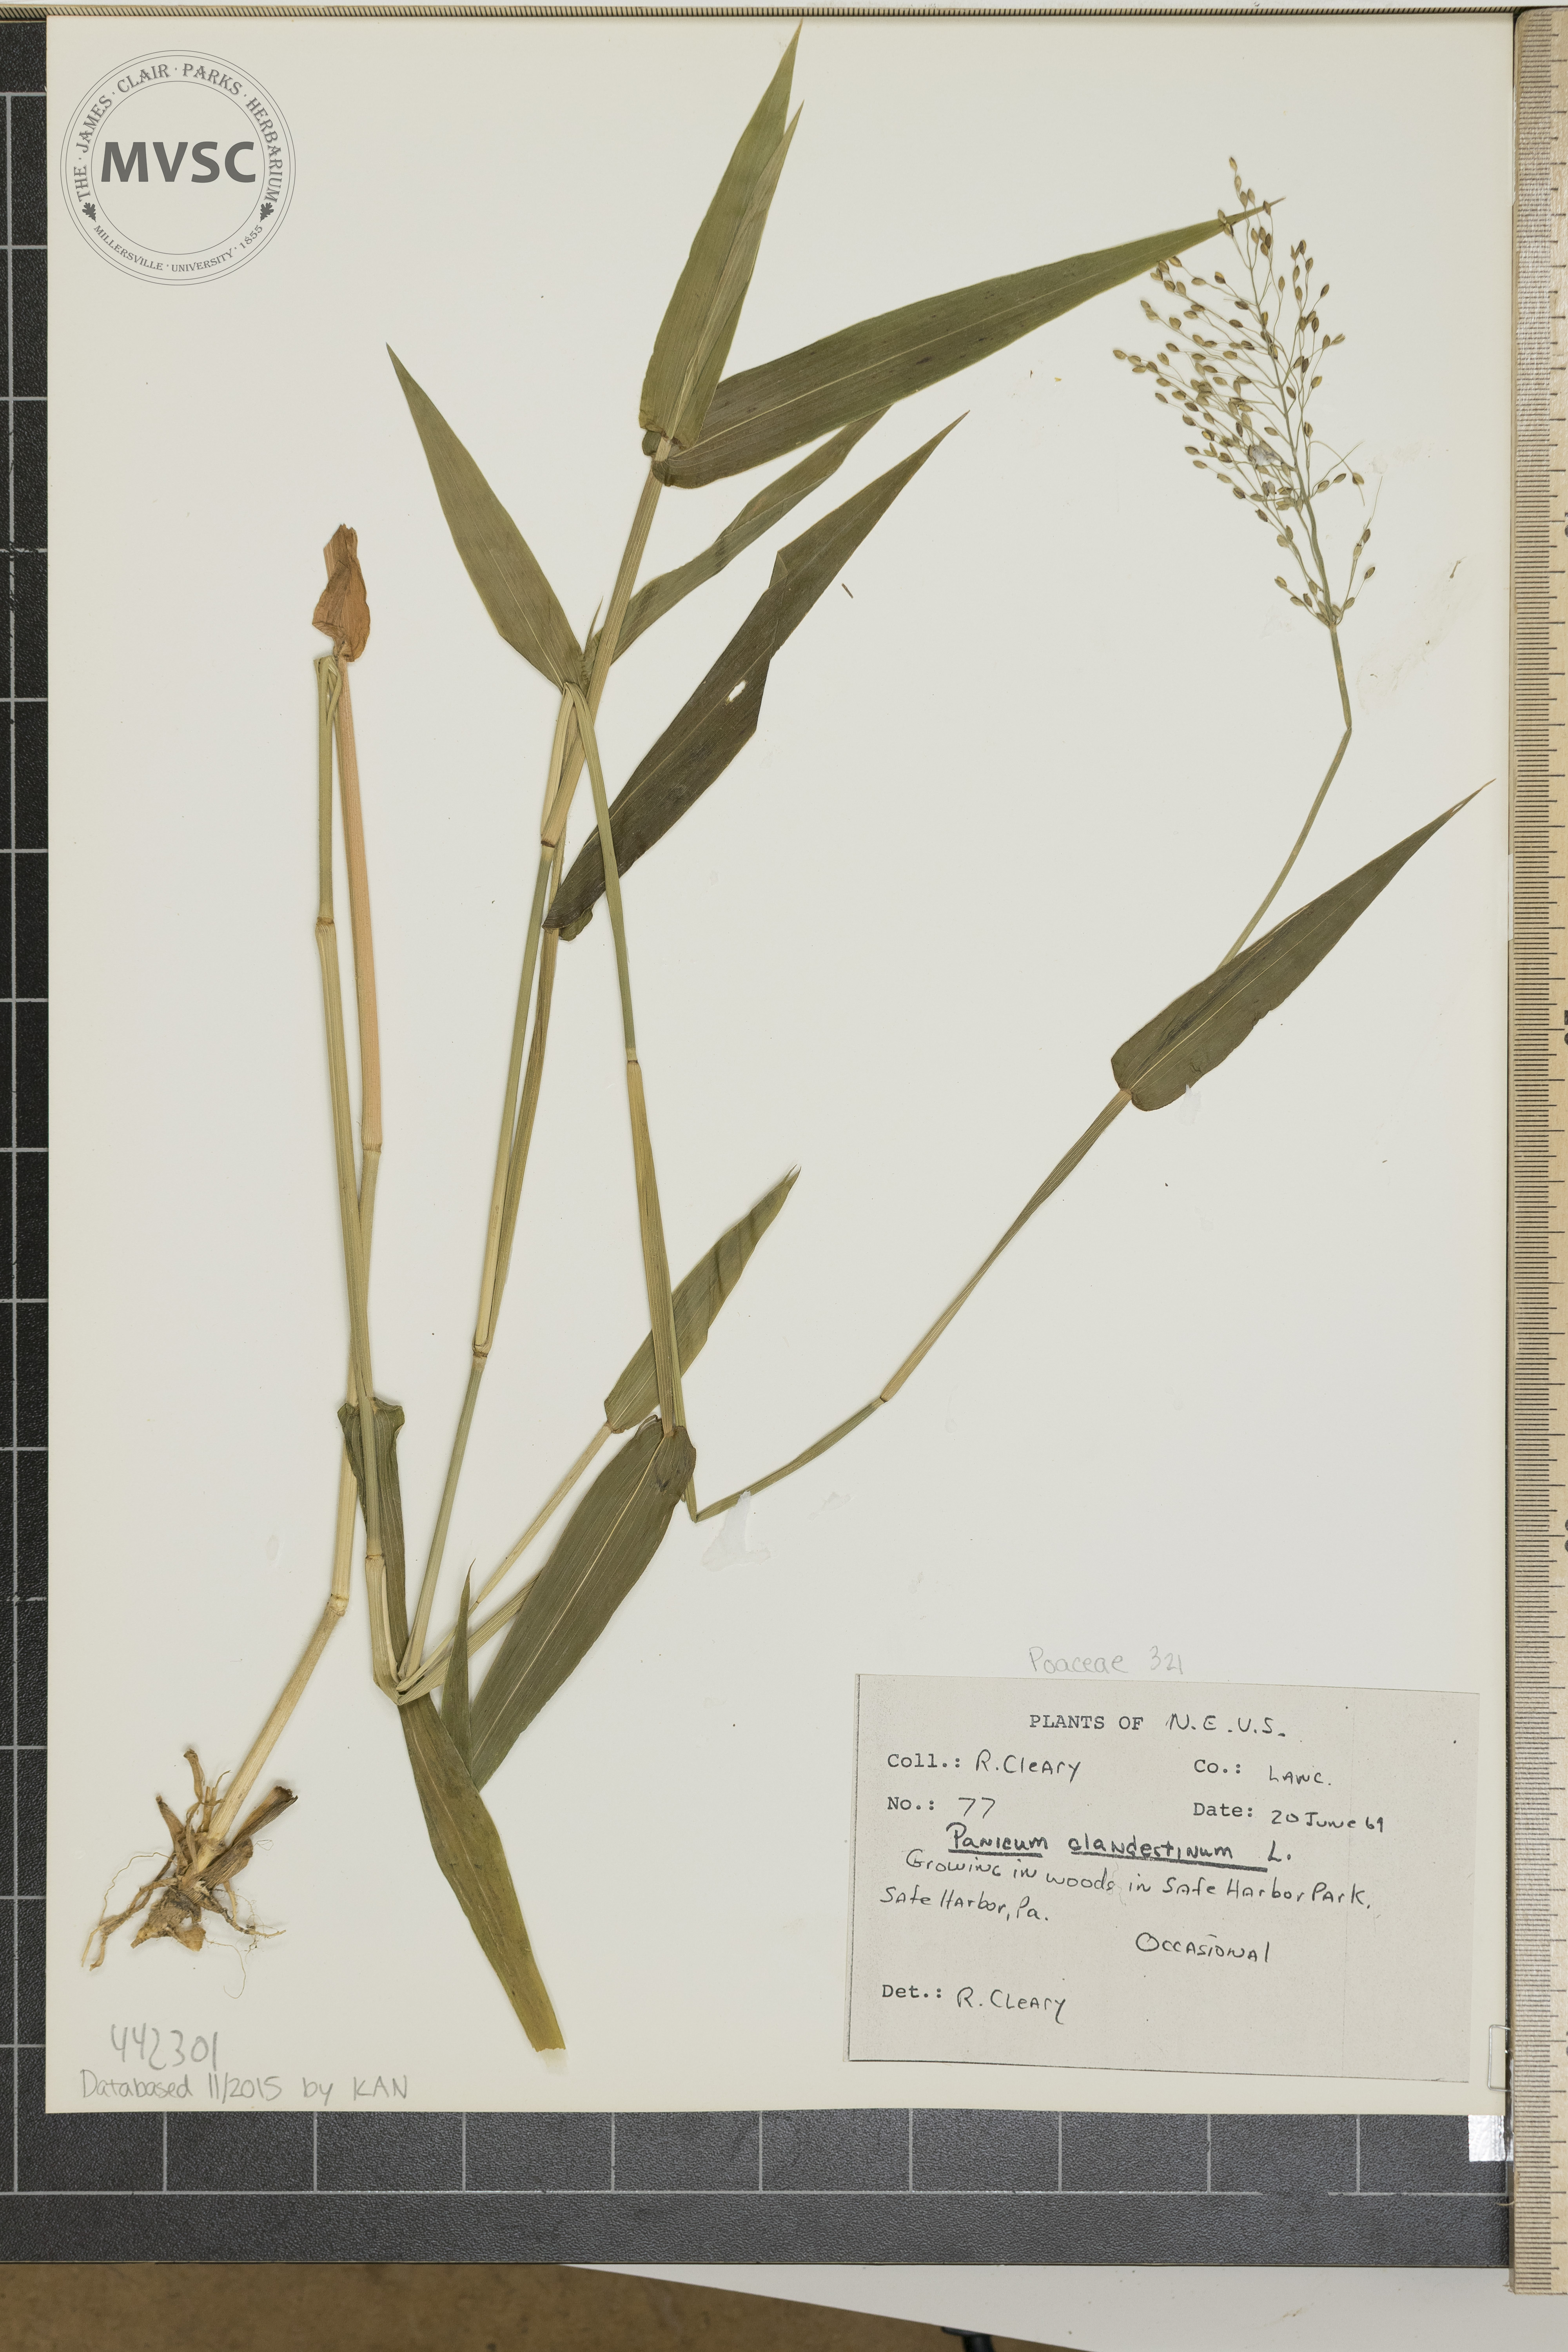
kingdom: Plantae
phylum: Tracheophyta
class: Liliopsida
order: Poales
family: Poaceae
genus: Dichanthelium
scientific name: Dichanthelium clandestinum
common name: Deer-tongue grass
